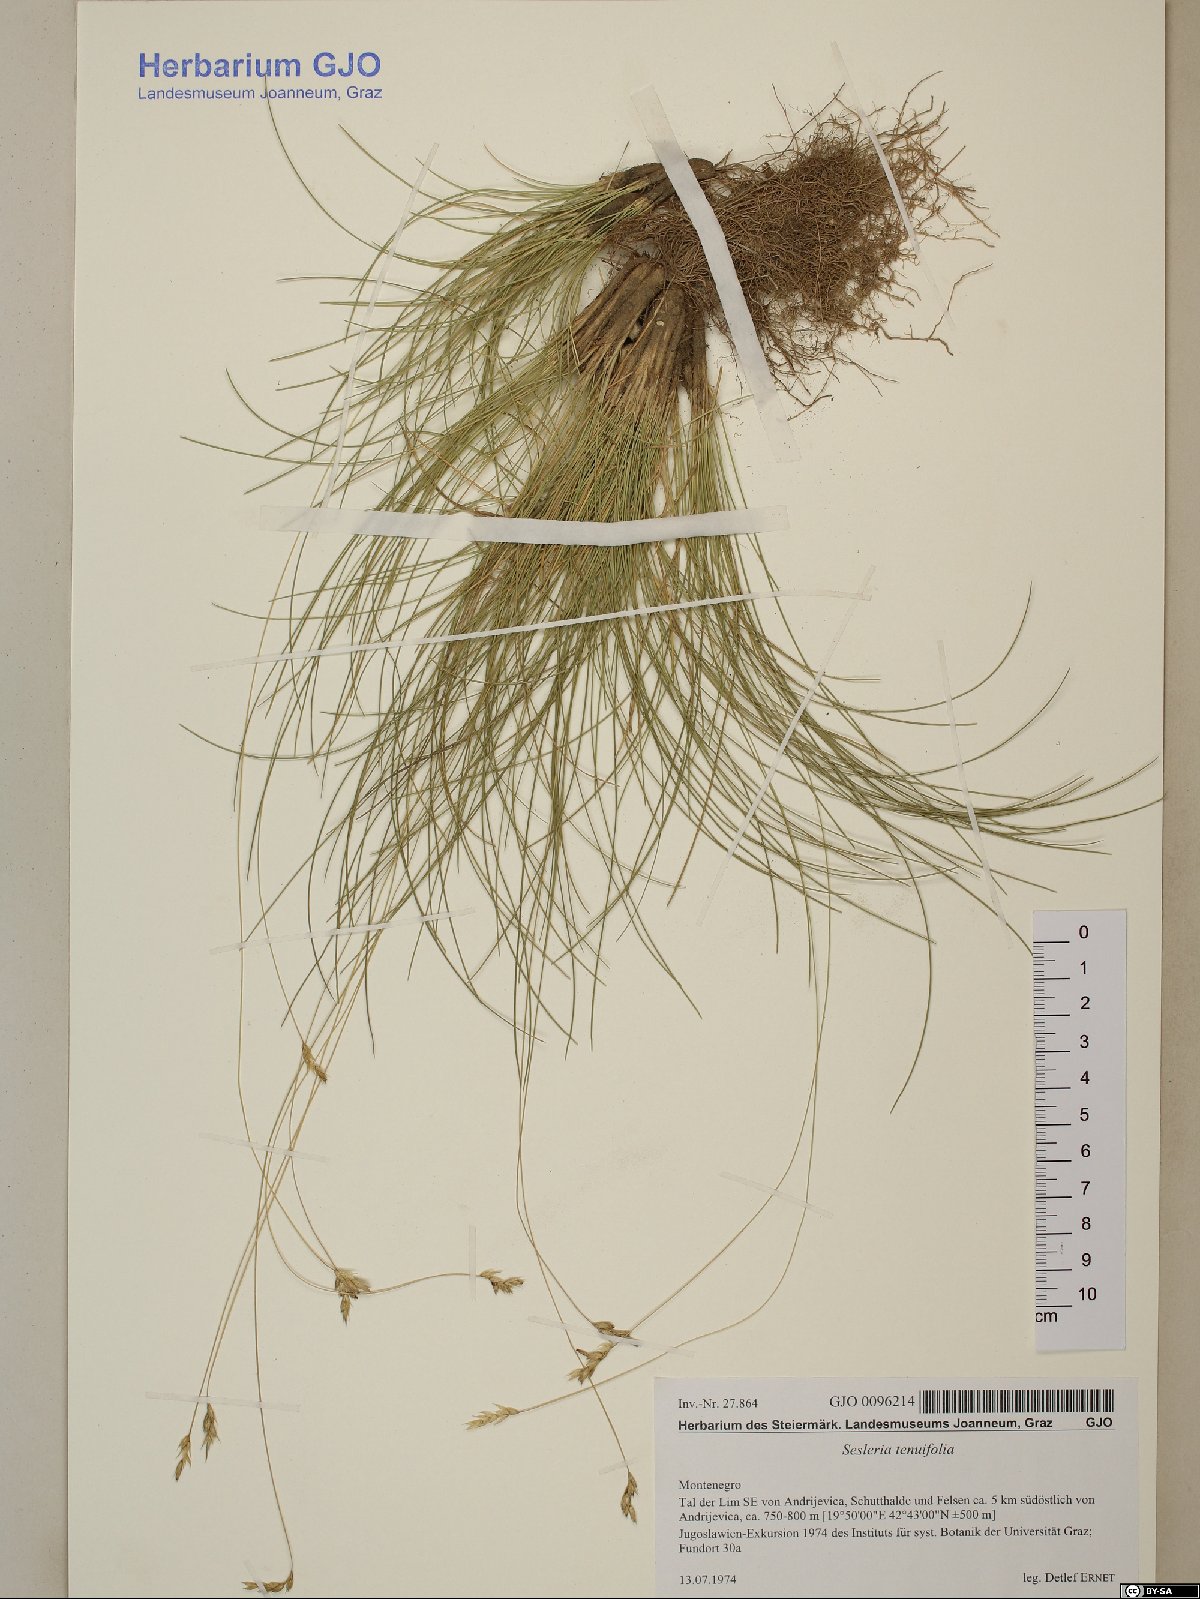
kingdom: Plantae
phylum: Tracheophyta
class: Liliopsida
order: Poales
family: Poaceae
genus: Sesleria
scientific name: Sesleria juncifolia
